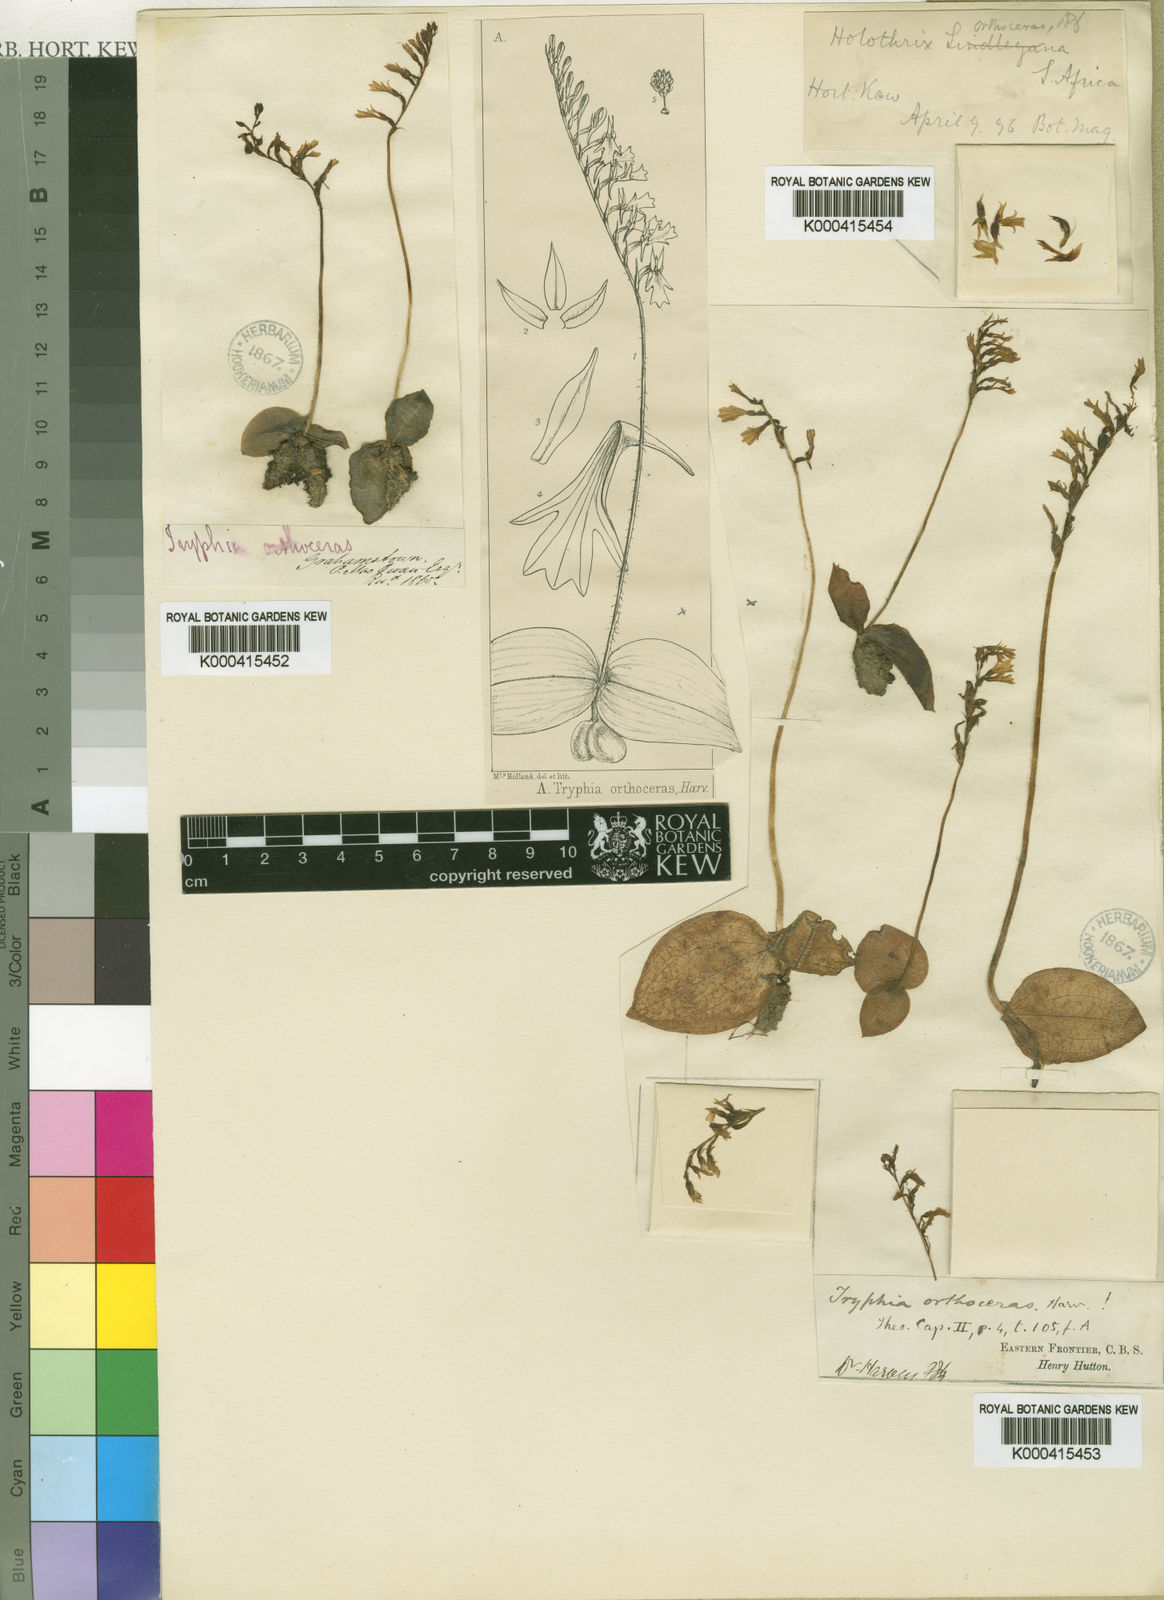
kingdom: Plantae
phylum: Tracheophyta
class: Liliopsida
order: Asparagales
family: Orchidaceae
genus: Holothrix
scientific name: Holothrix orthoceras
